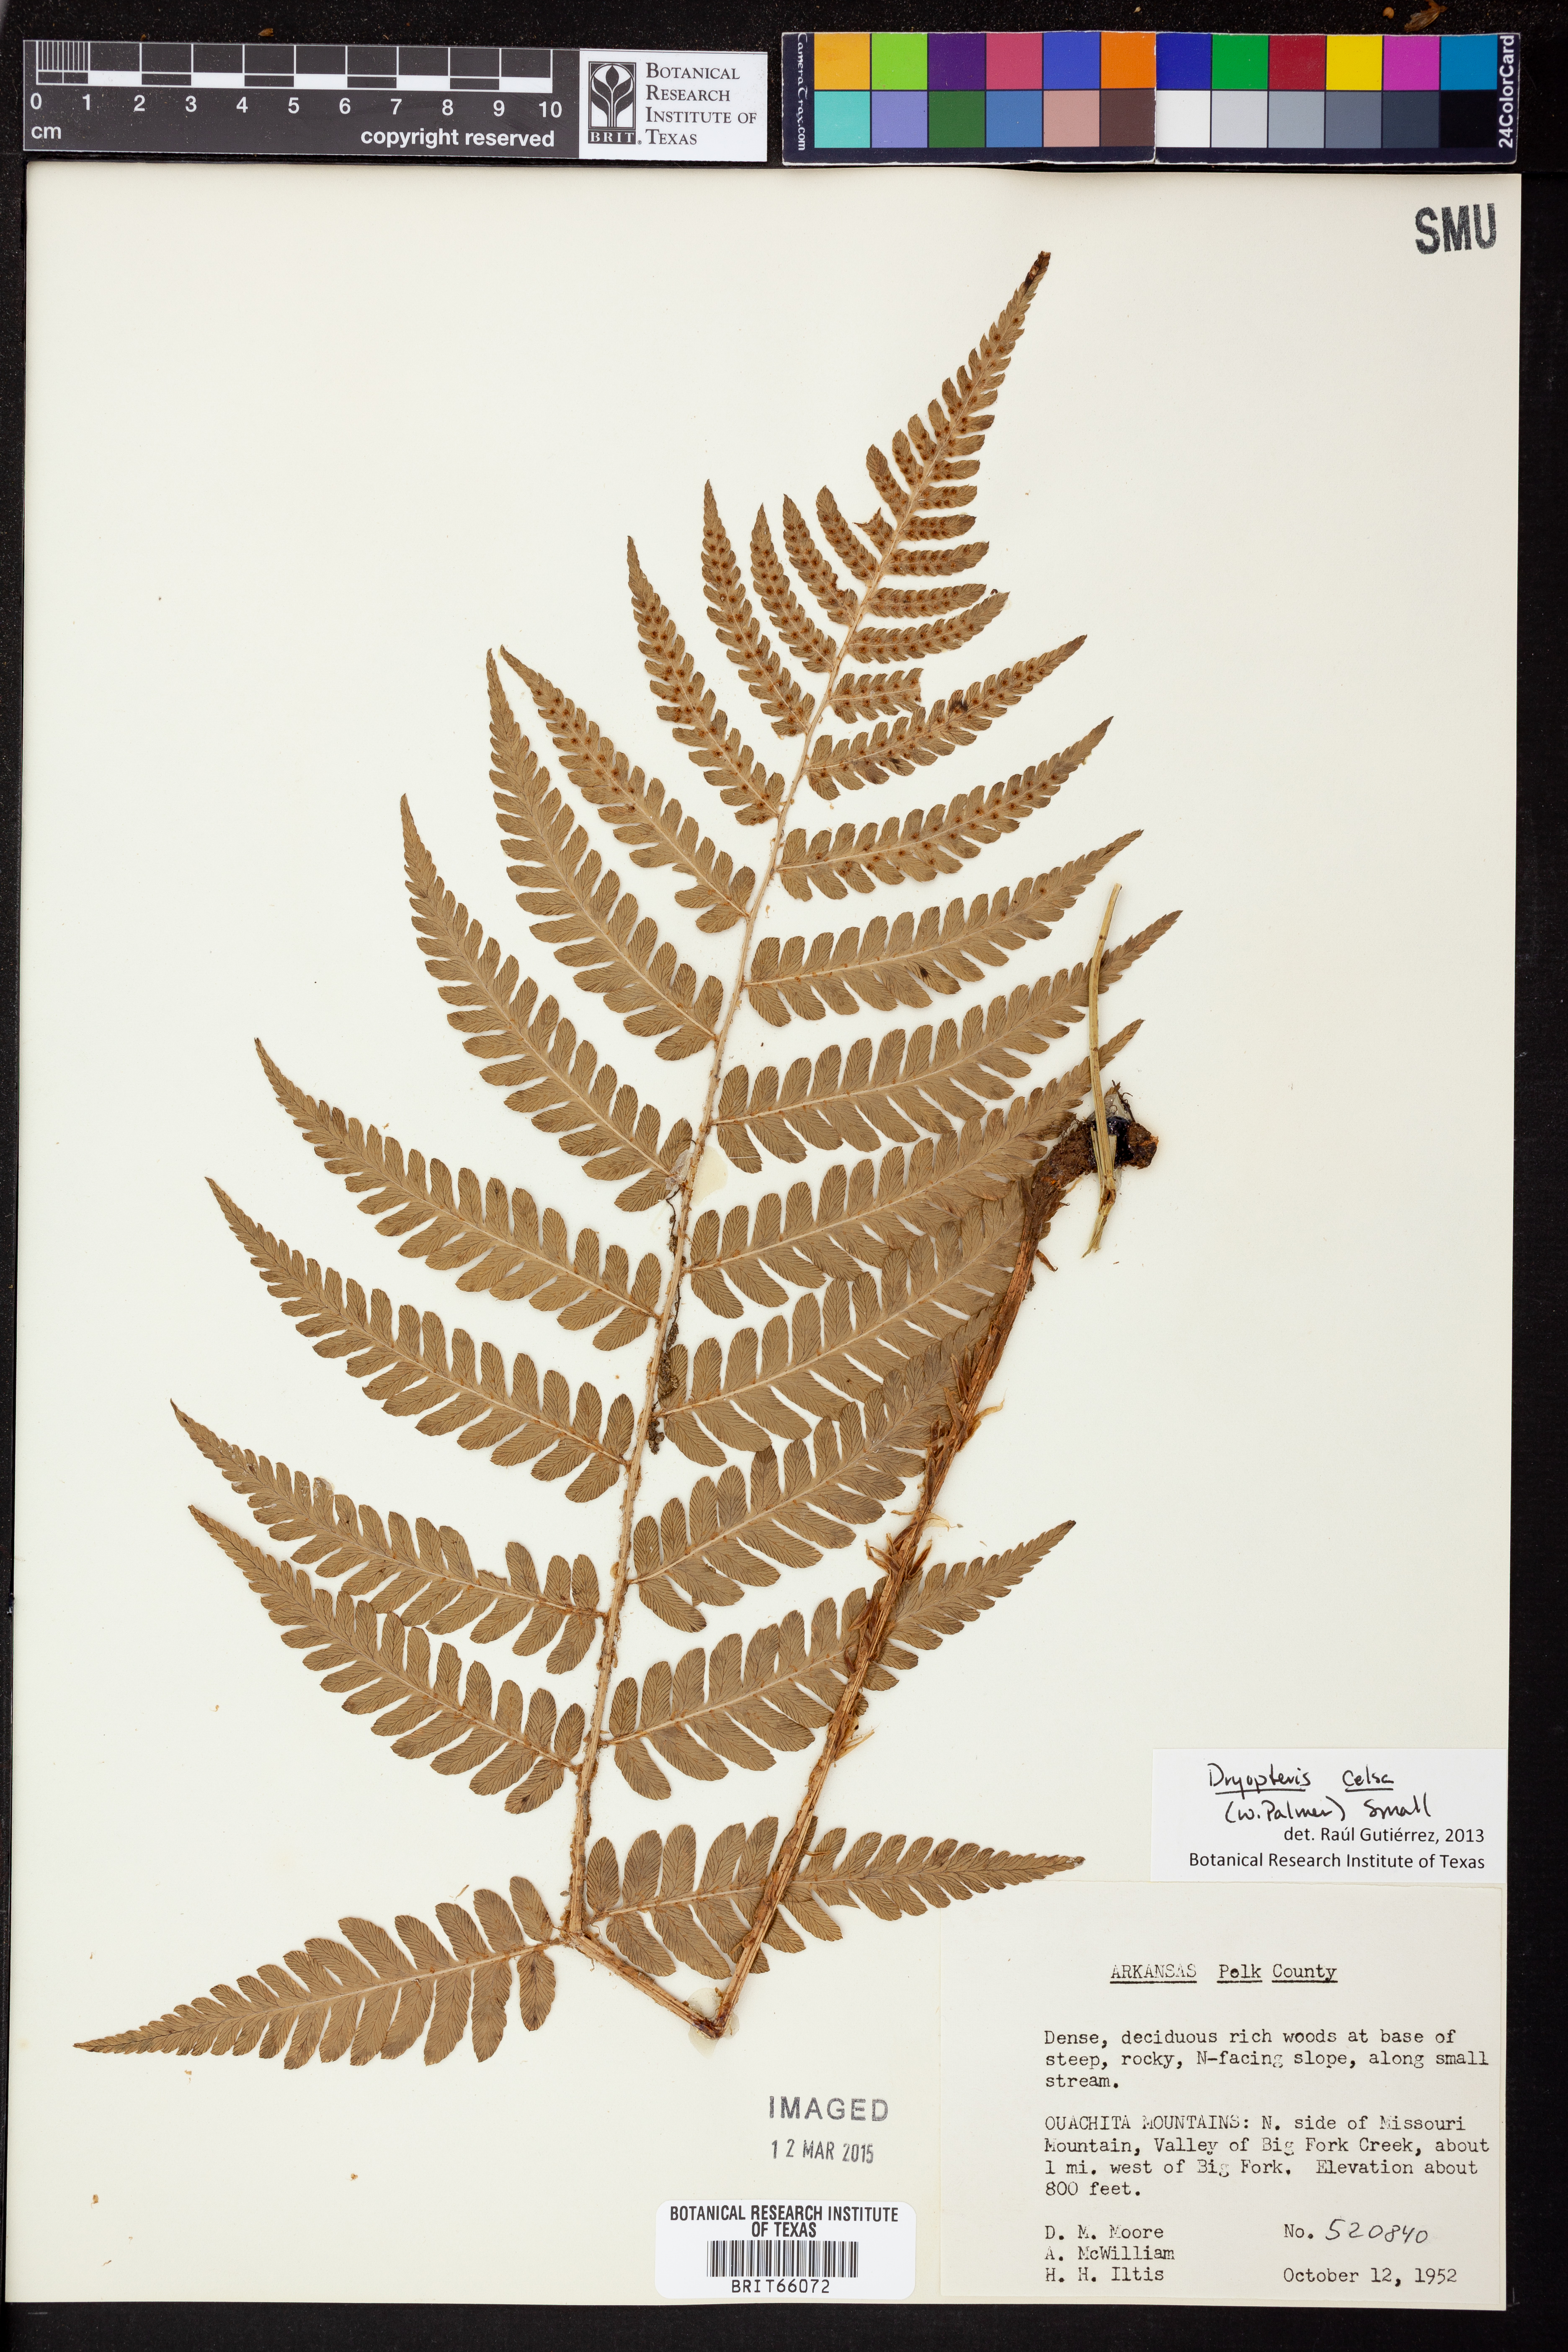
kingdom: Plantae
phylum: Tracheophyta
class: Polypodiopsida
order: Polypodiales
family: Dryopteridaceae
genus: Dryopteris
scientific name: Dryopteris celsa
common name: Log fern
